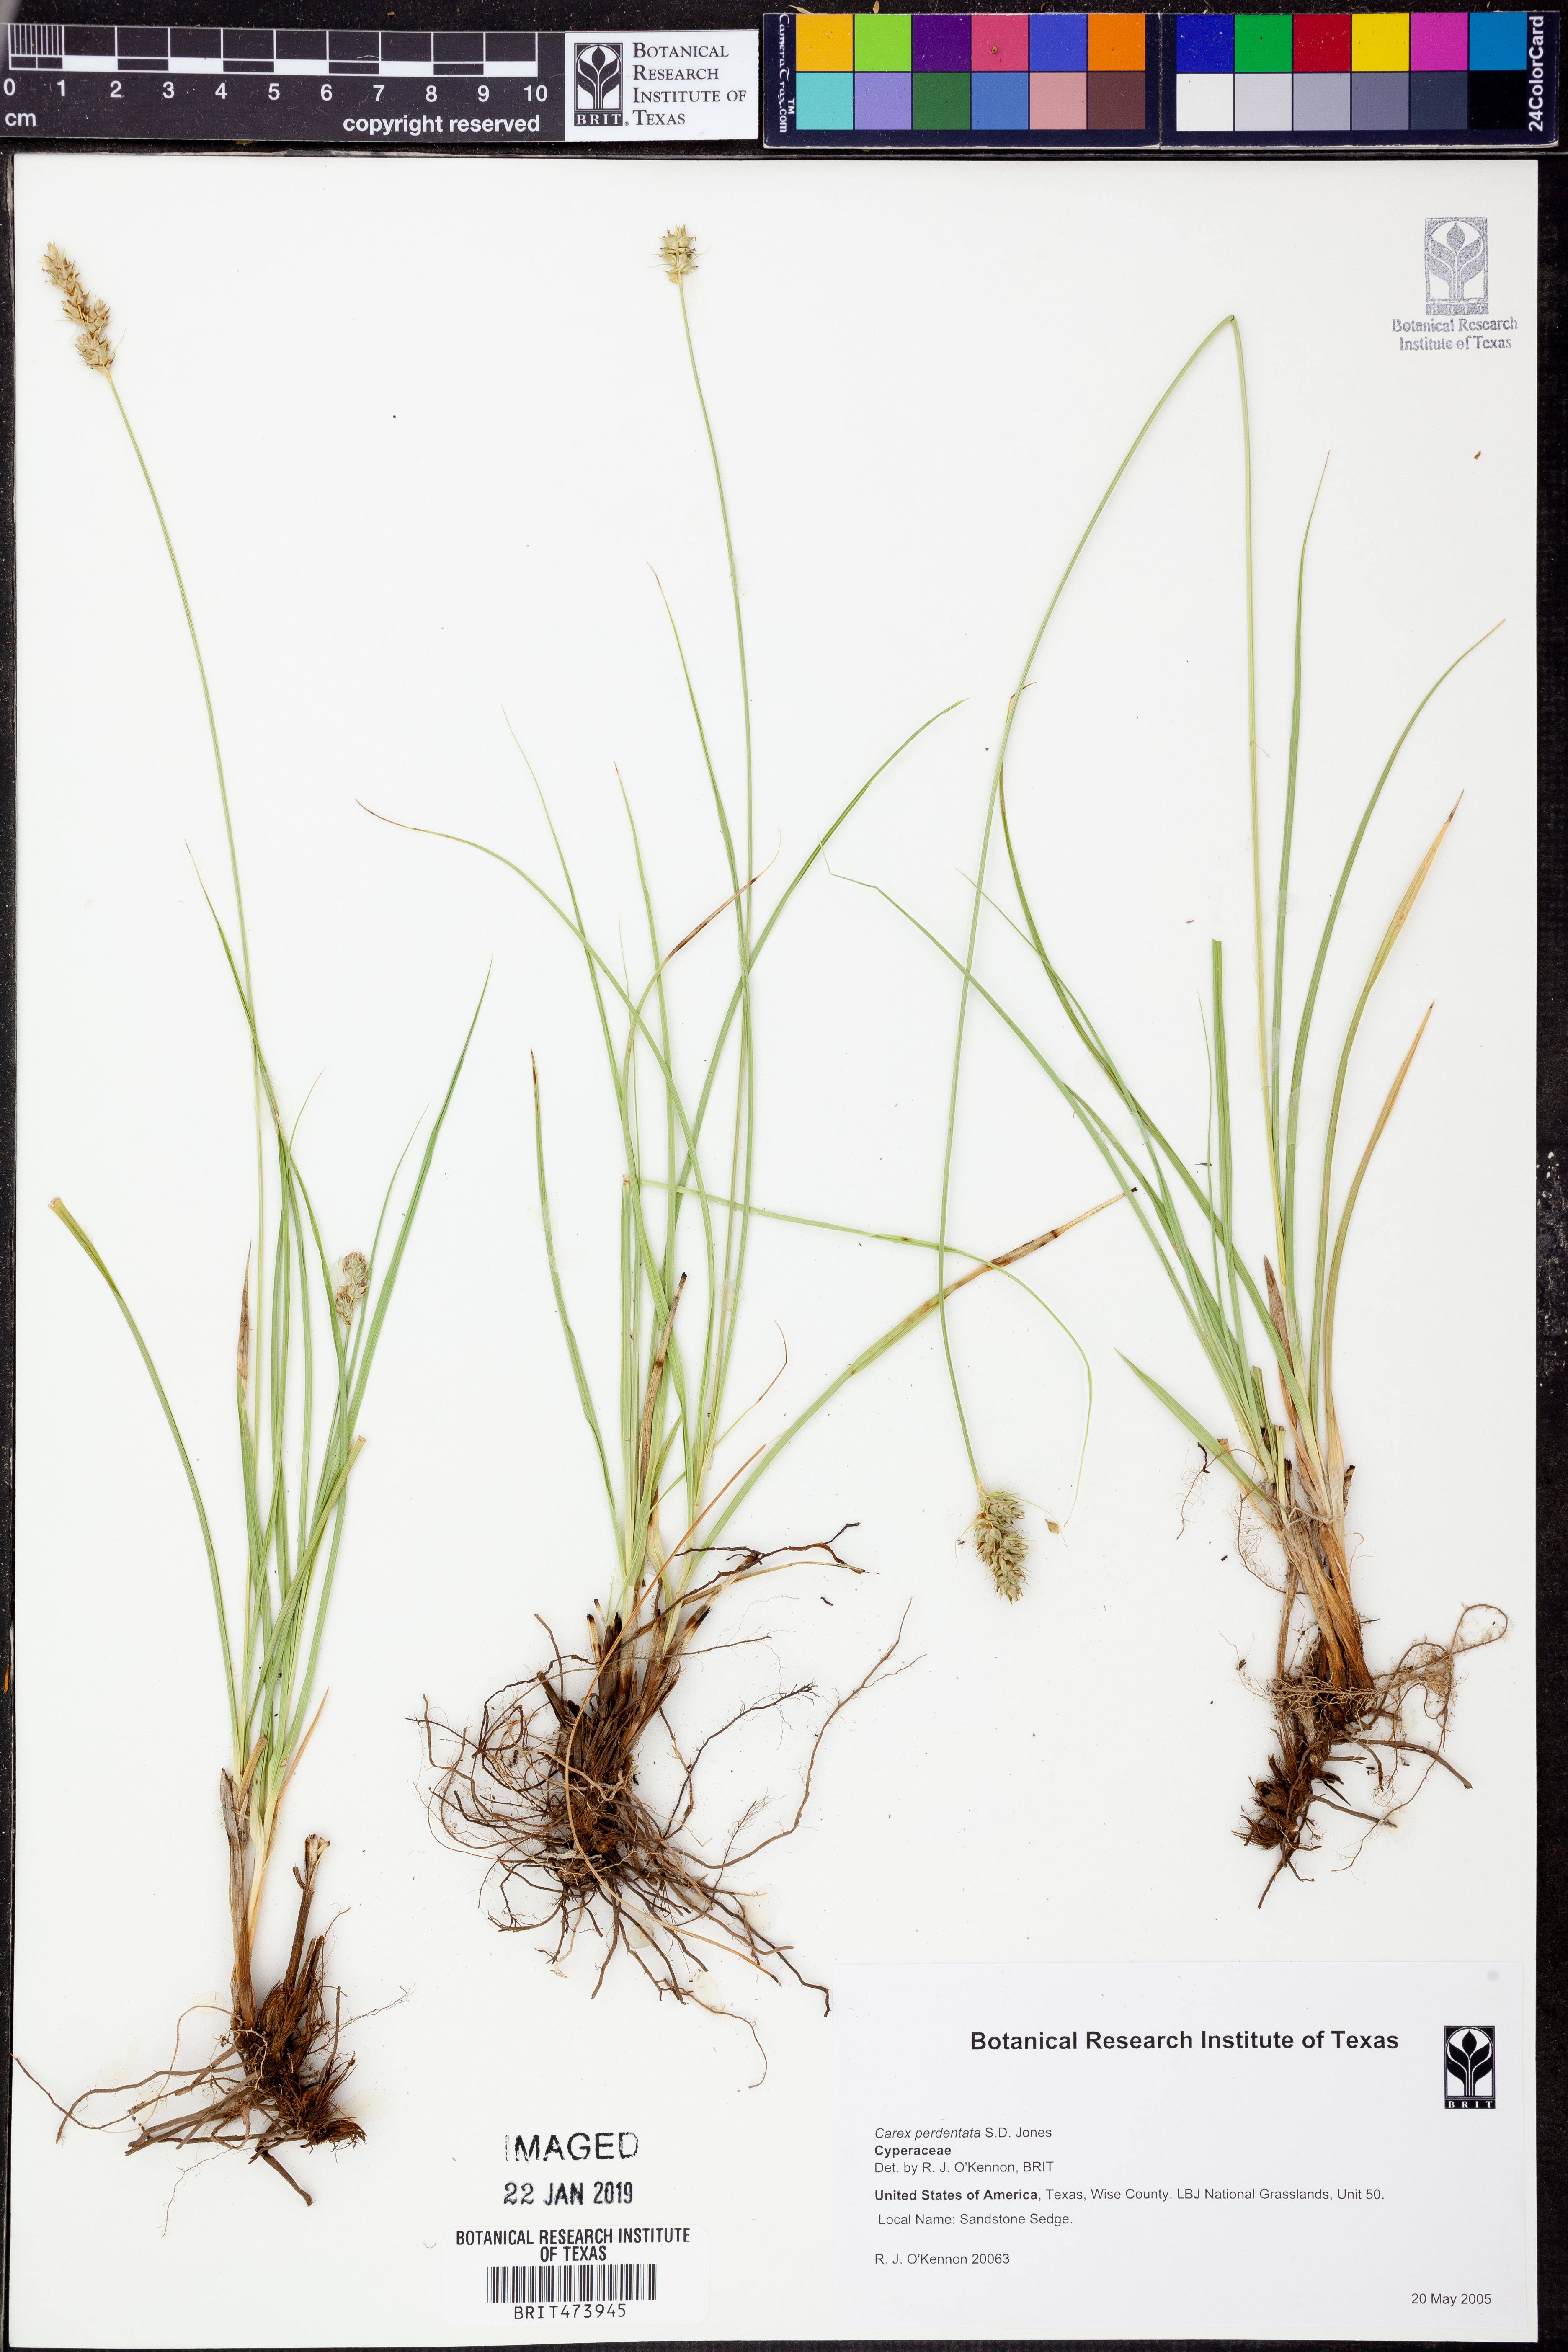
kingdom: Plantae
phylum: Tracheophyta
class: Liliopsida
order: Poales
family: Cyperaceae
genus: Carex
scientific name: Carex perdentata
